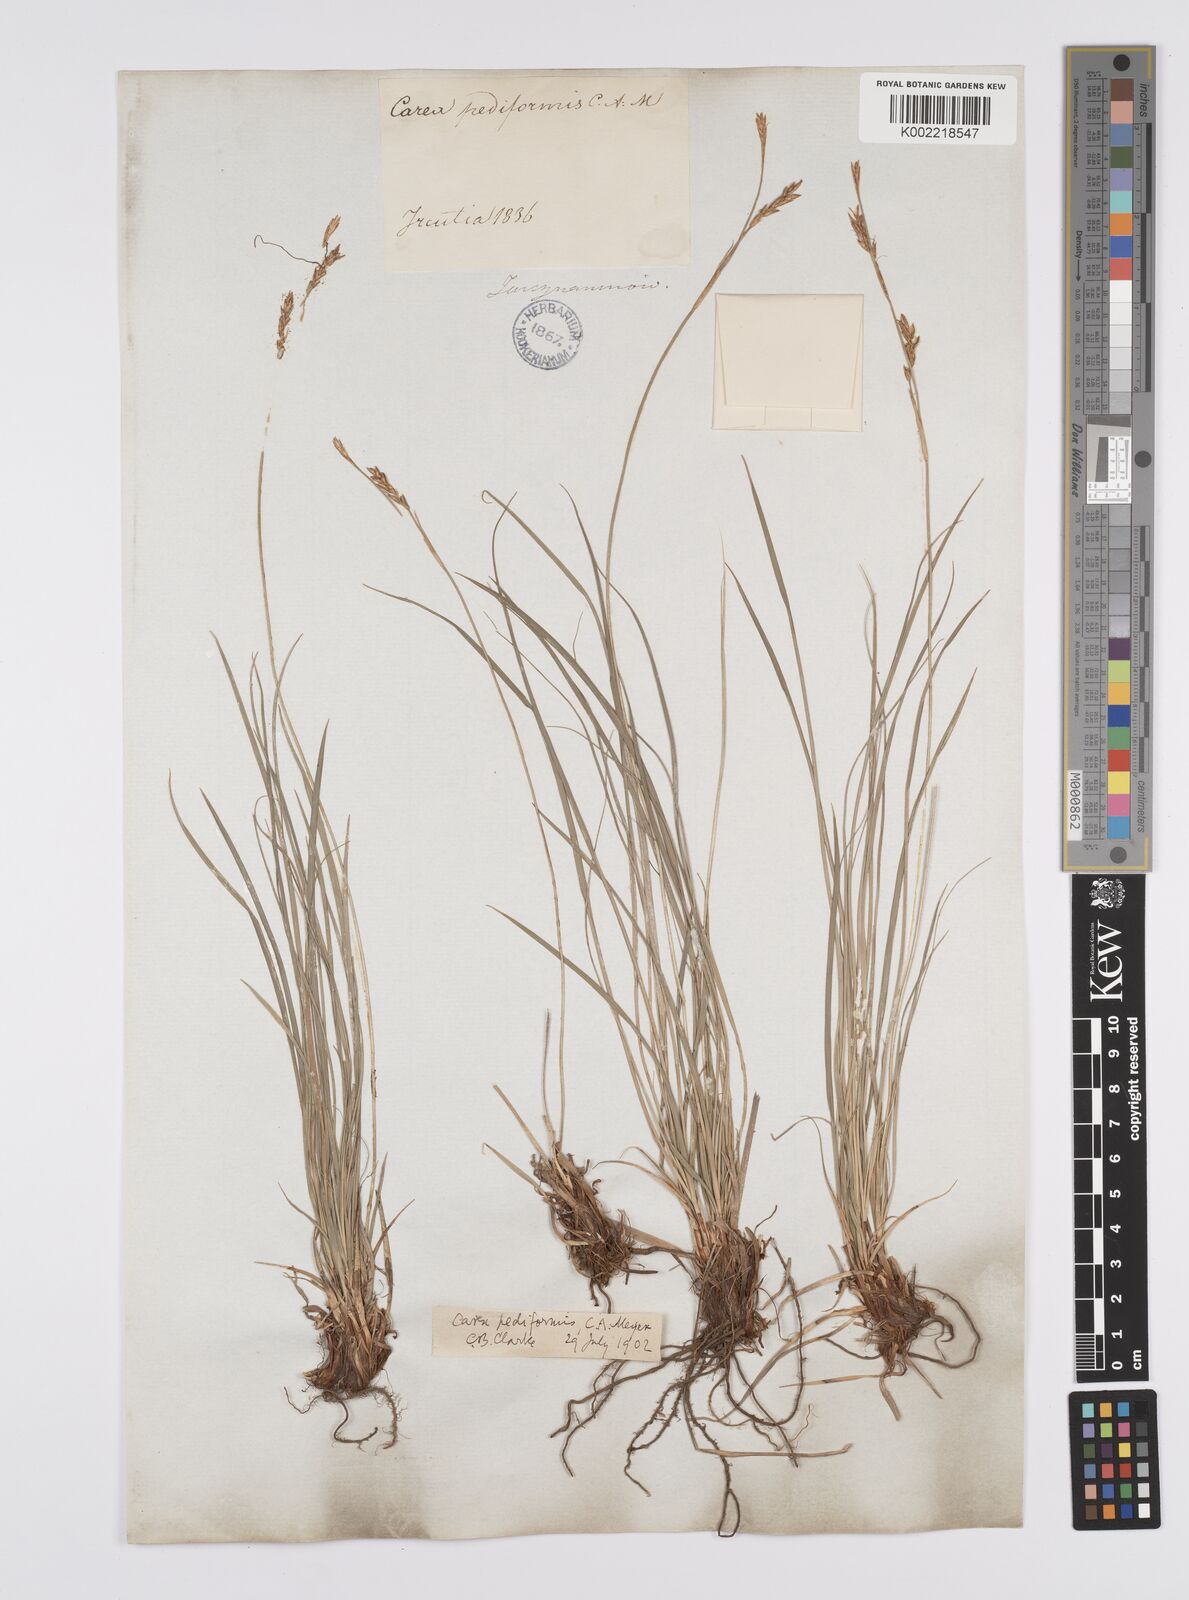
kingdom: Plantae
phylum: Tracheophyta
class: Liliopsida
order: Poales
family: Cyperaceae
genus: Carex
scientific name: Carex pediformis
